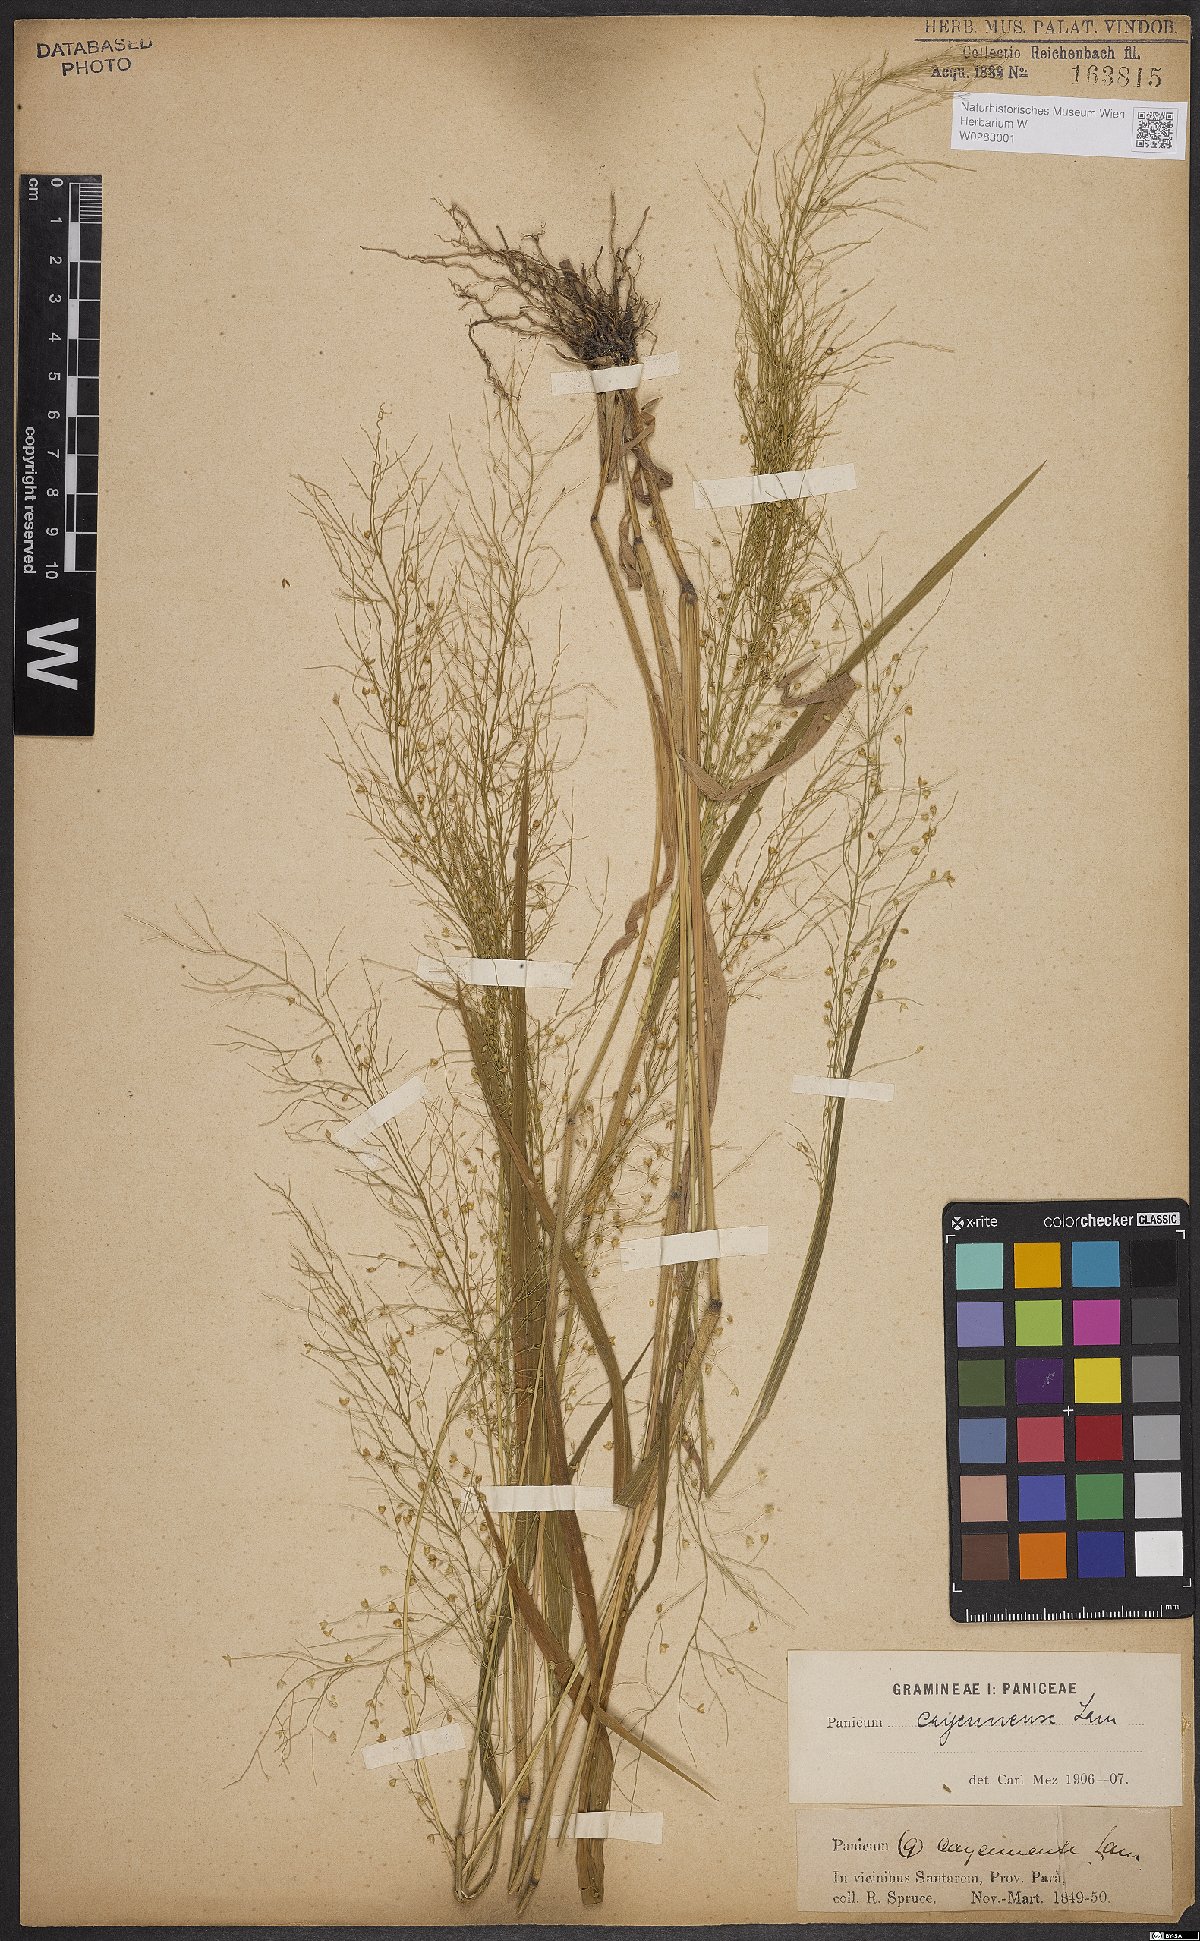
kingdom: Plantae
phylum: Tracheophyta
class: Liliopsida
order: Poales
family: Poaceae
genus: Panicum
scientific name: Panicum cayennense
